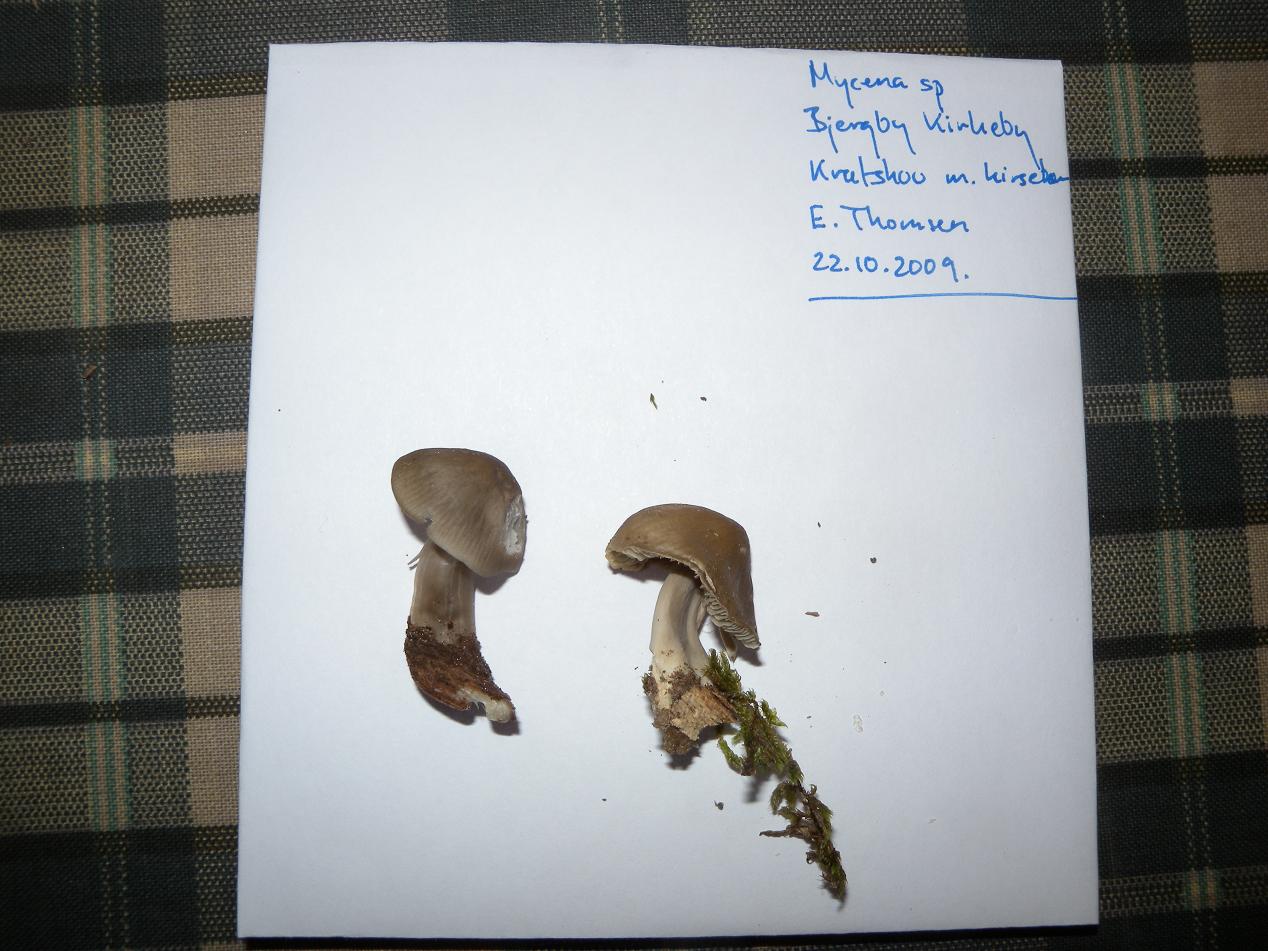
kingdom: Fungi
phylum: Basidiomycota
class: Agaricomycetes
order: Agaricales
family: Mycenaceae
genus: Mycena
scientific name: Mycena galericulata
